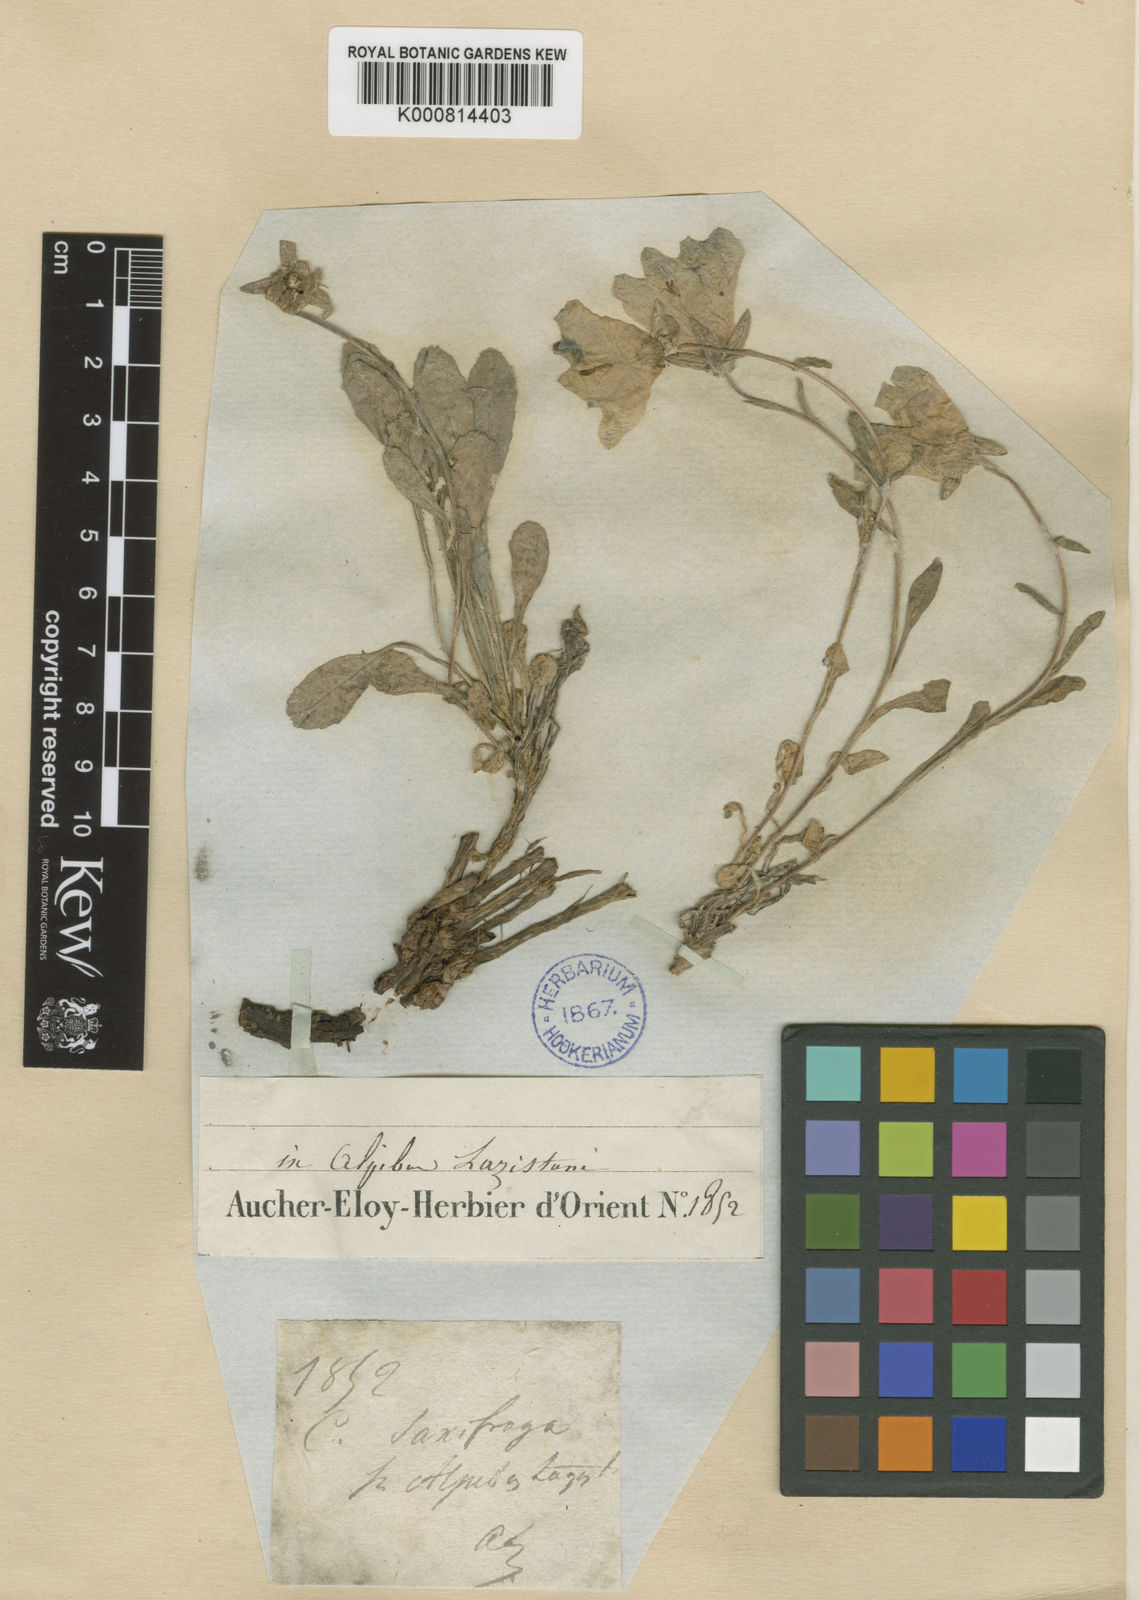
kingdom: Plantae
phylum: Tracheophyta
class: Magnoliopsida
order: Asterales
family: Campanulaceae
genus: Campanula
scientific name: Campanula saxifraga
